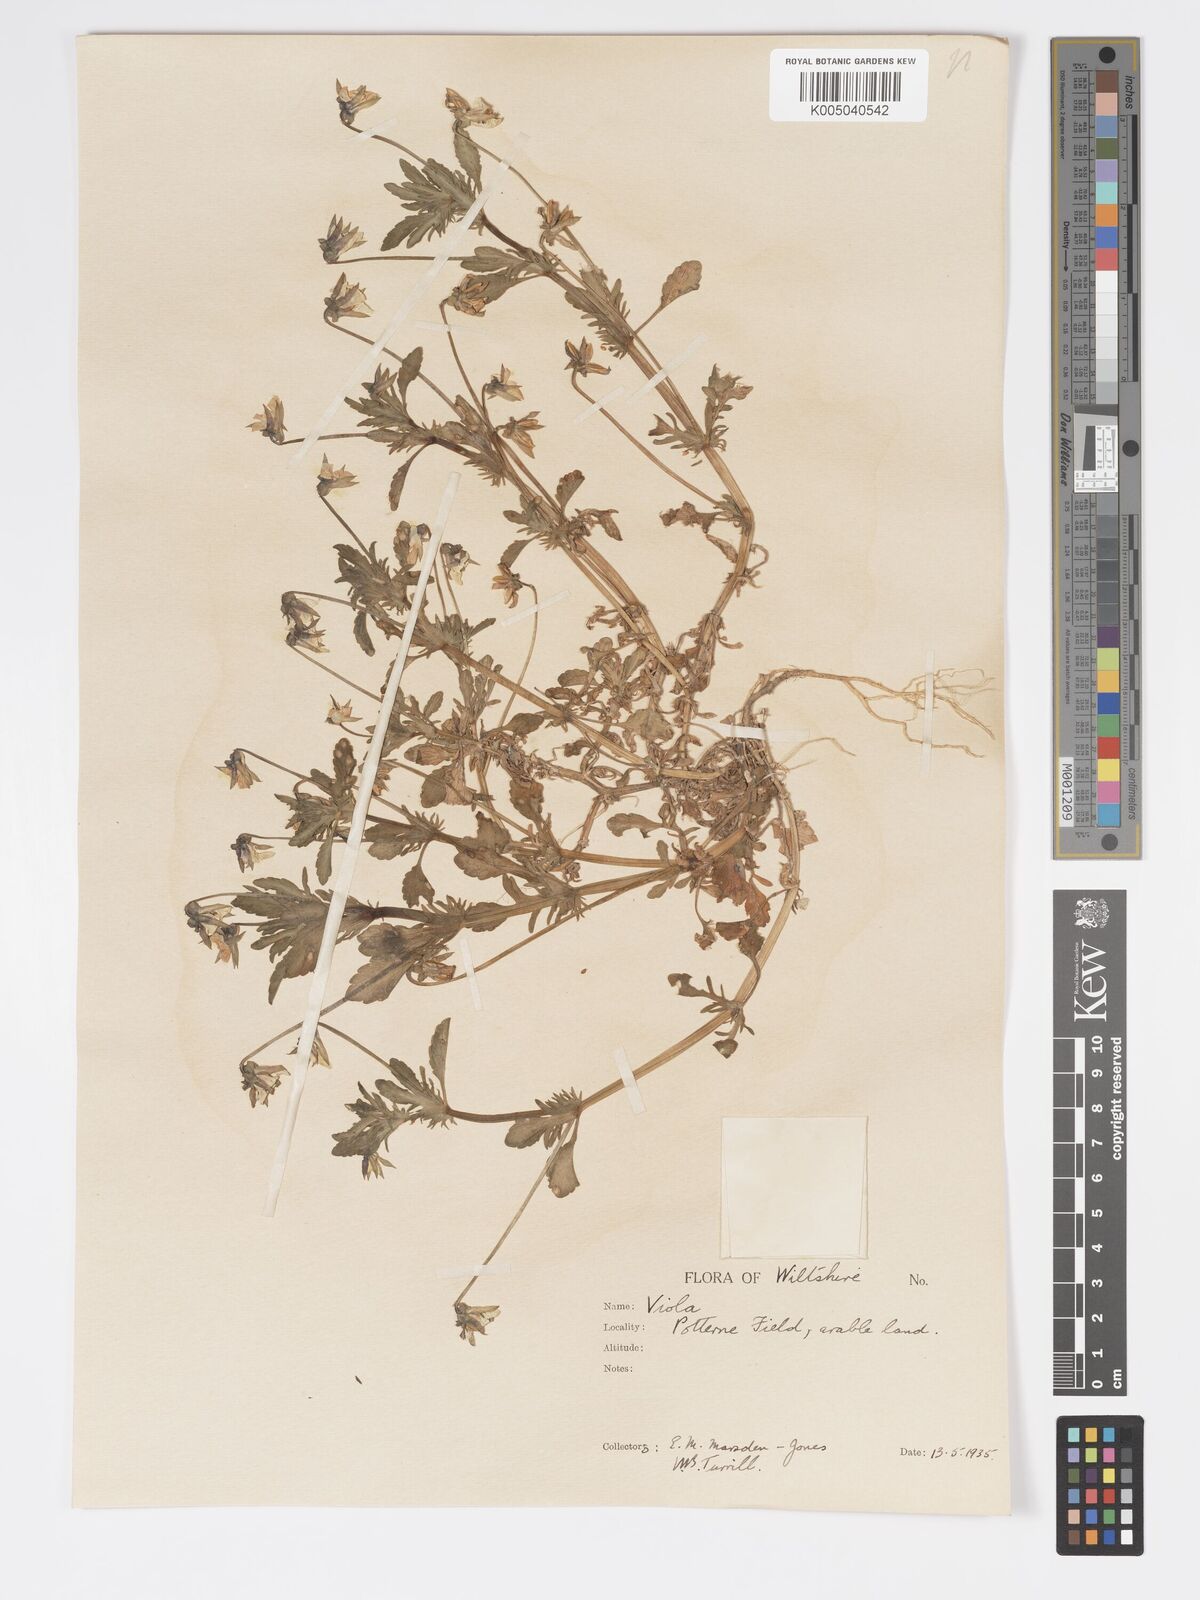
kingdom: Plantae
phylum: Tracheophyta
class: Magnoliopsida
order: Malpighiales
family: Violaceae
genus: Viola
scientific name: Viola
